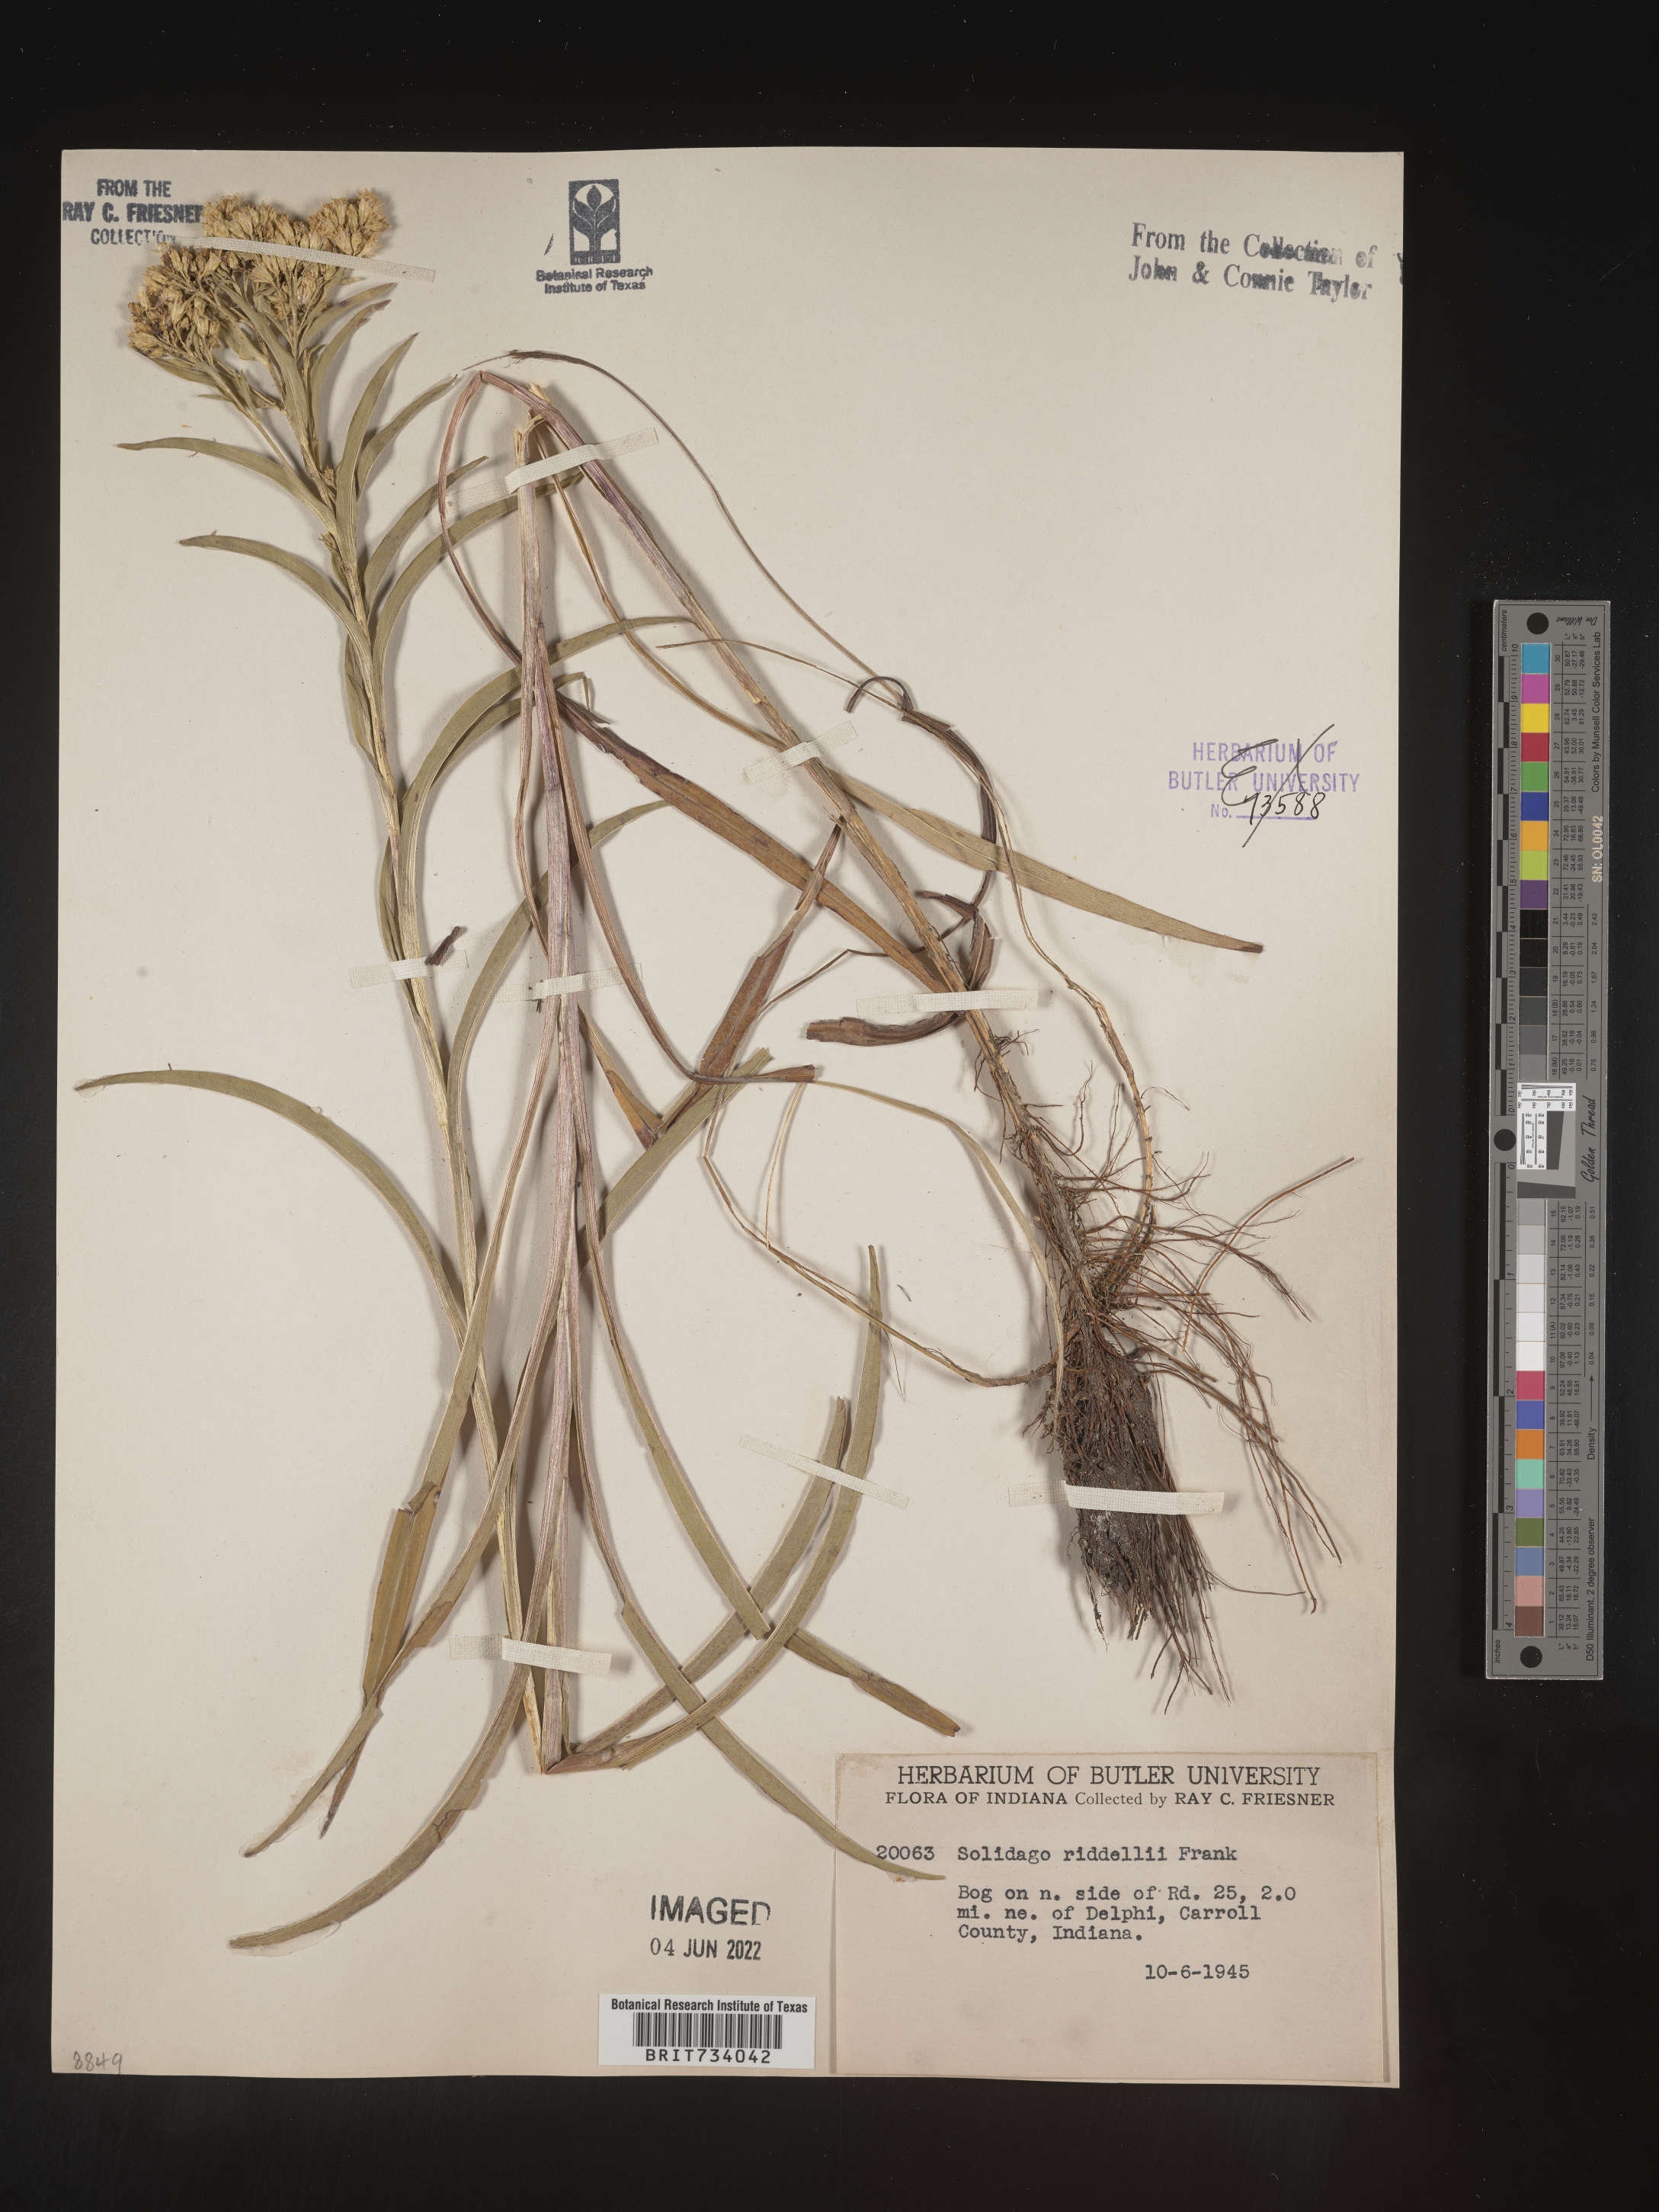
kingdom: Plantae
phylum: Tracheophyta
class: Magnoliopsida
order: Asterales
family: Asteraceae
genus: Solidago
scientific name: Solidago riddellii
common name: Riddell's goldenrod
